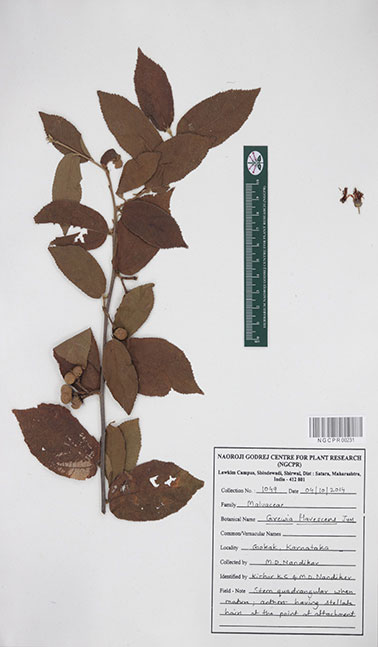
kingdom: Plantae
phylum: Tracheophyta
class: Magnoliopsida
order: Malvales
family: Malvaceae
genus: Grewia
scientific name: Grewia flavescens
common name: Sandpaper raisin
